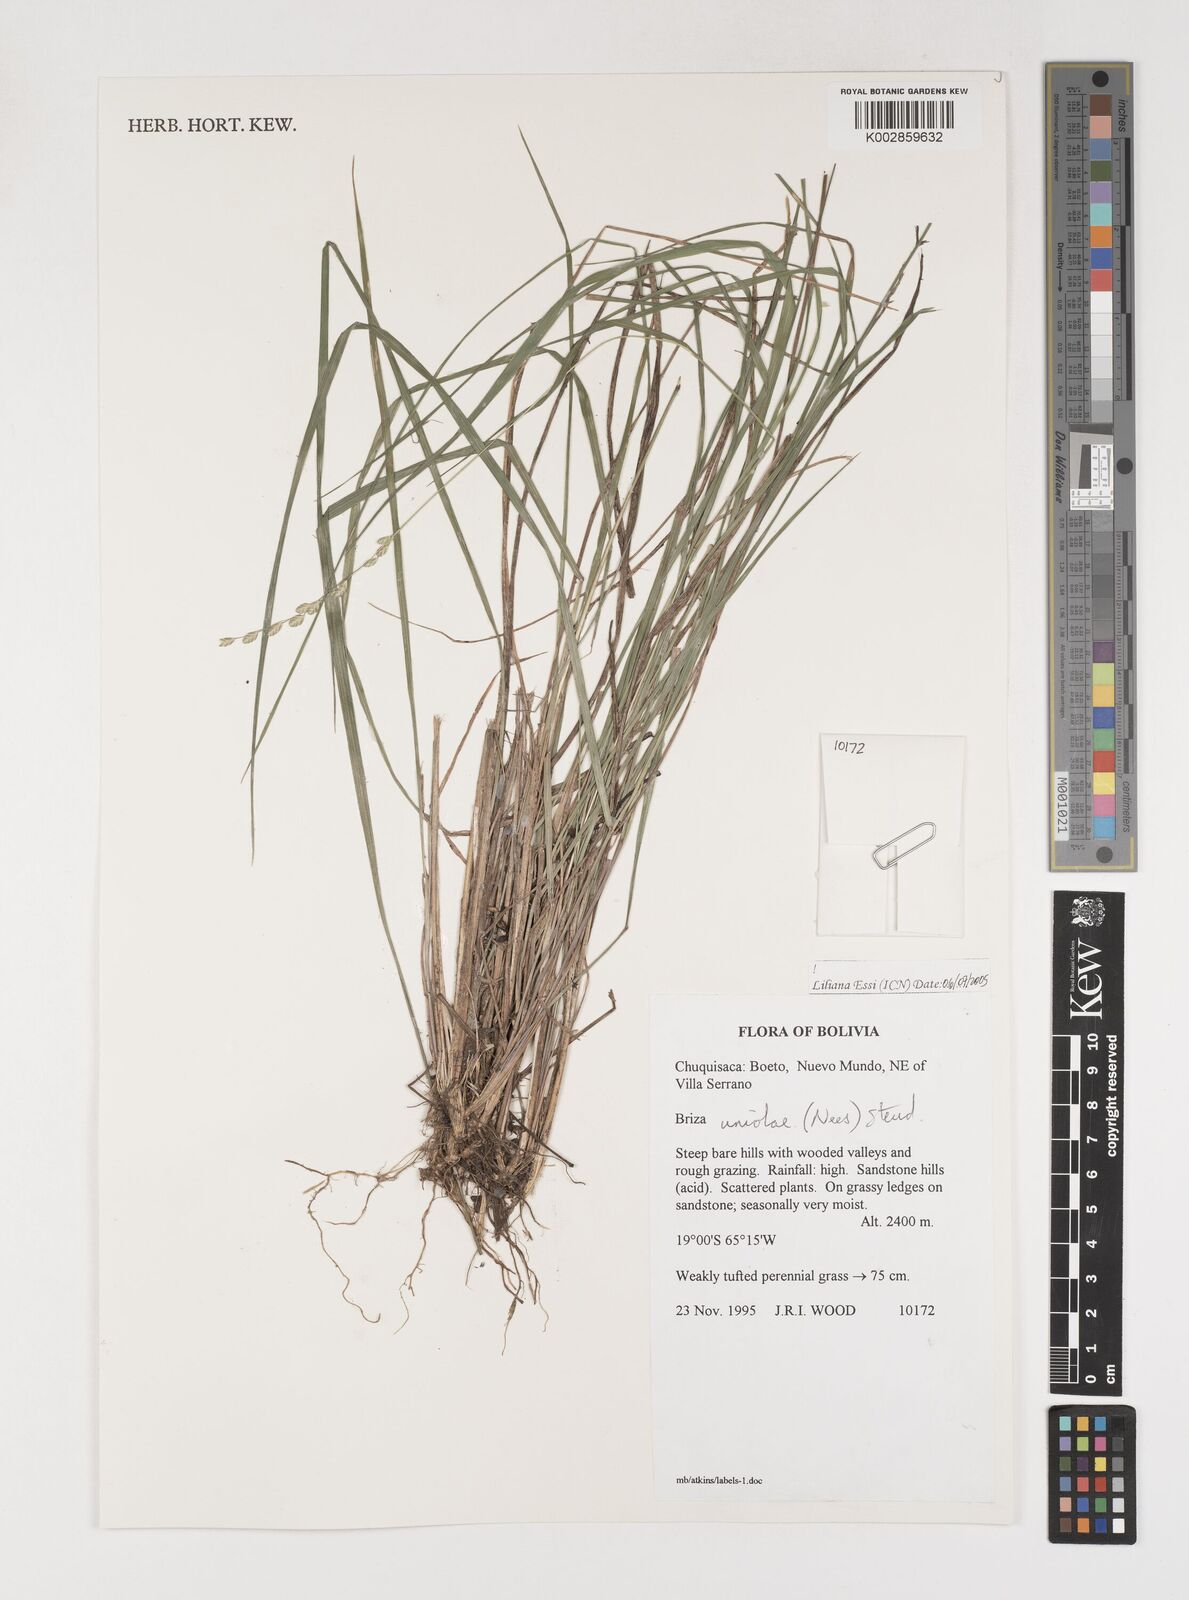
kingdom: Plantae
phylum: Tracheophyta
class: Liliopsida
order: Poales
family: Poaceae
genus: Poidium
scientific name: Poidium uniolae
